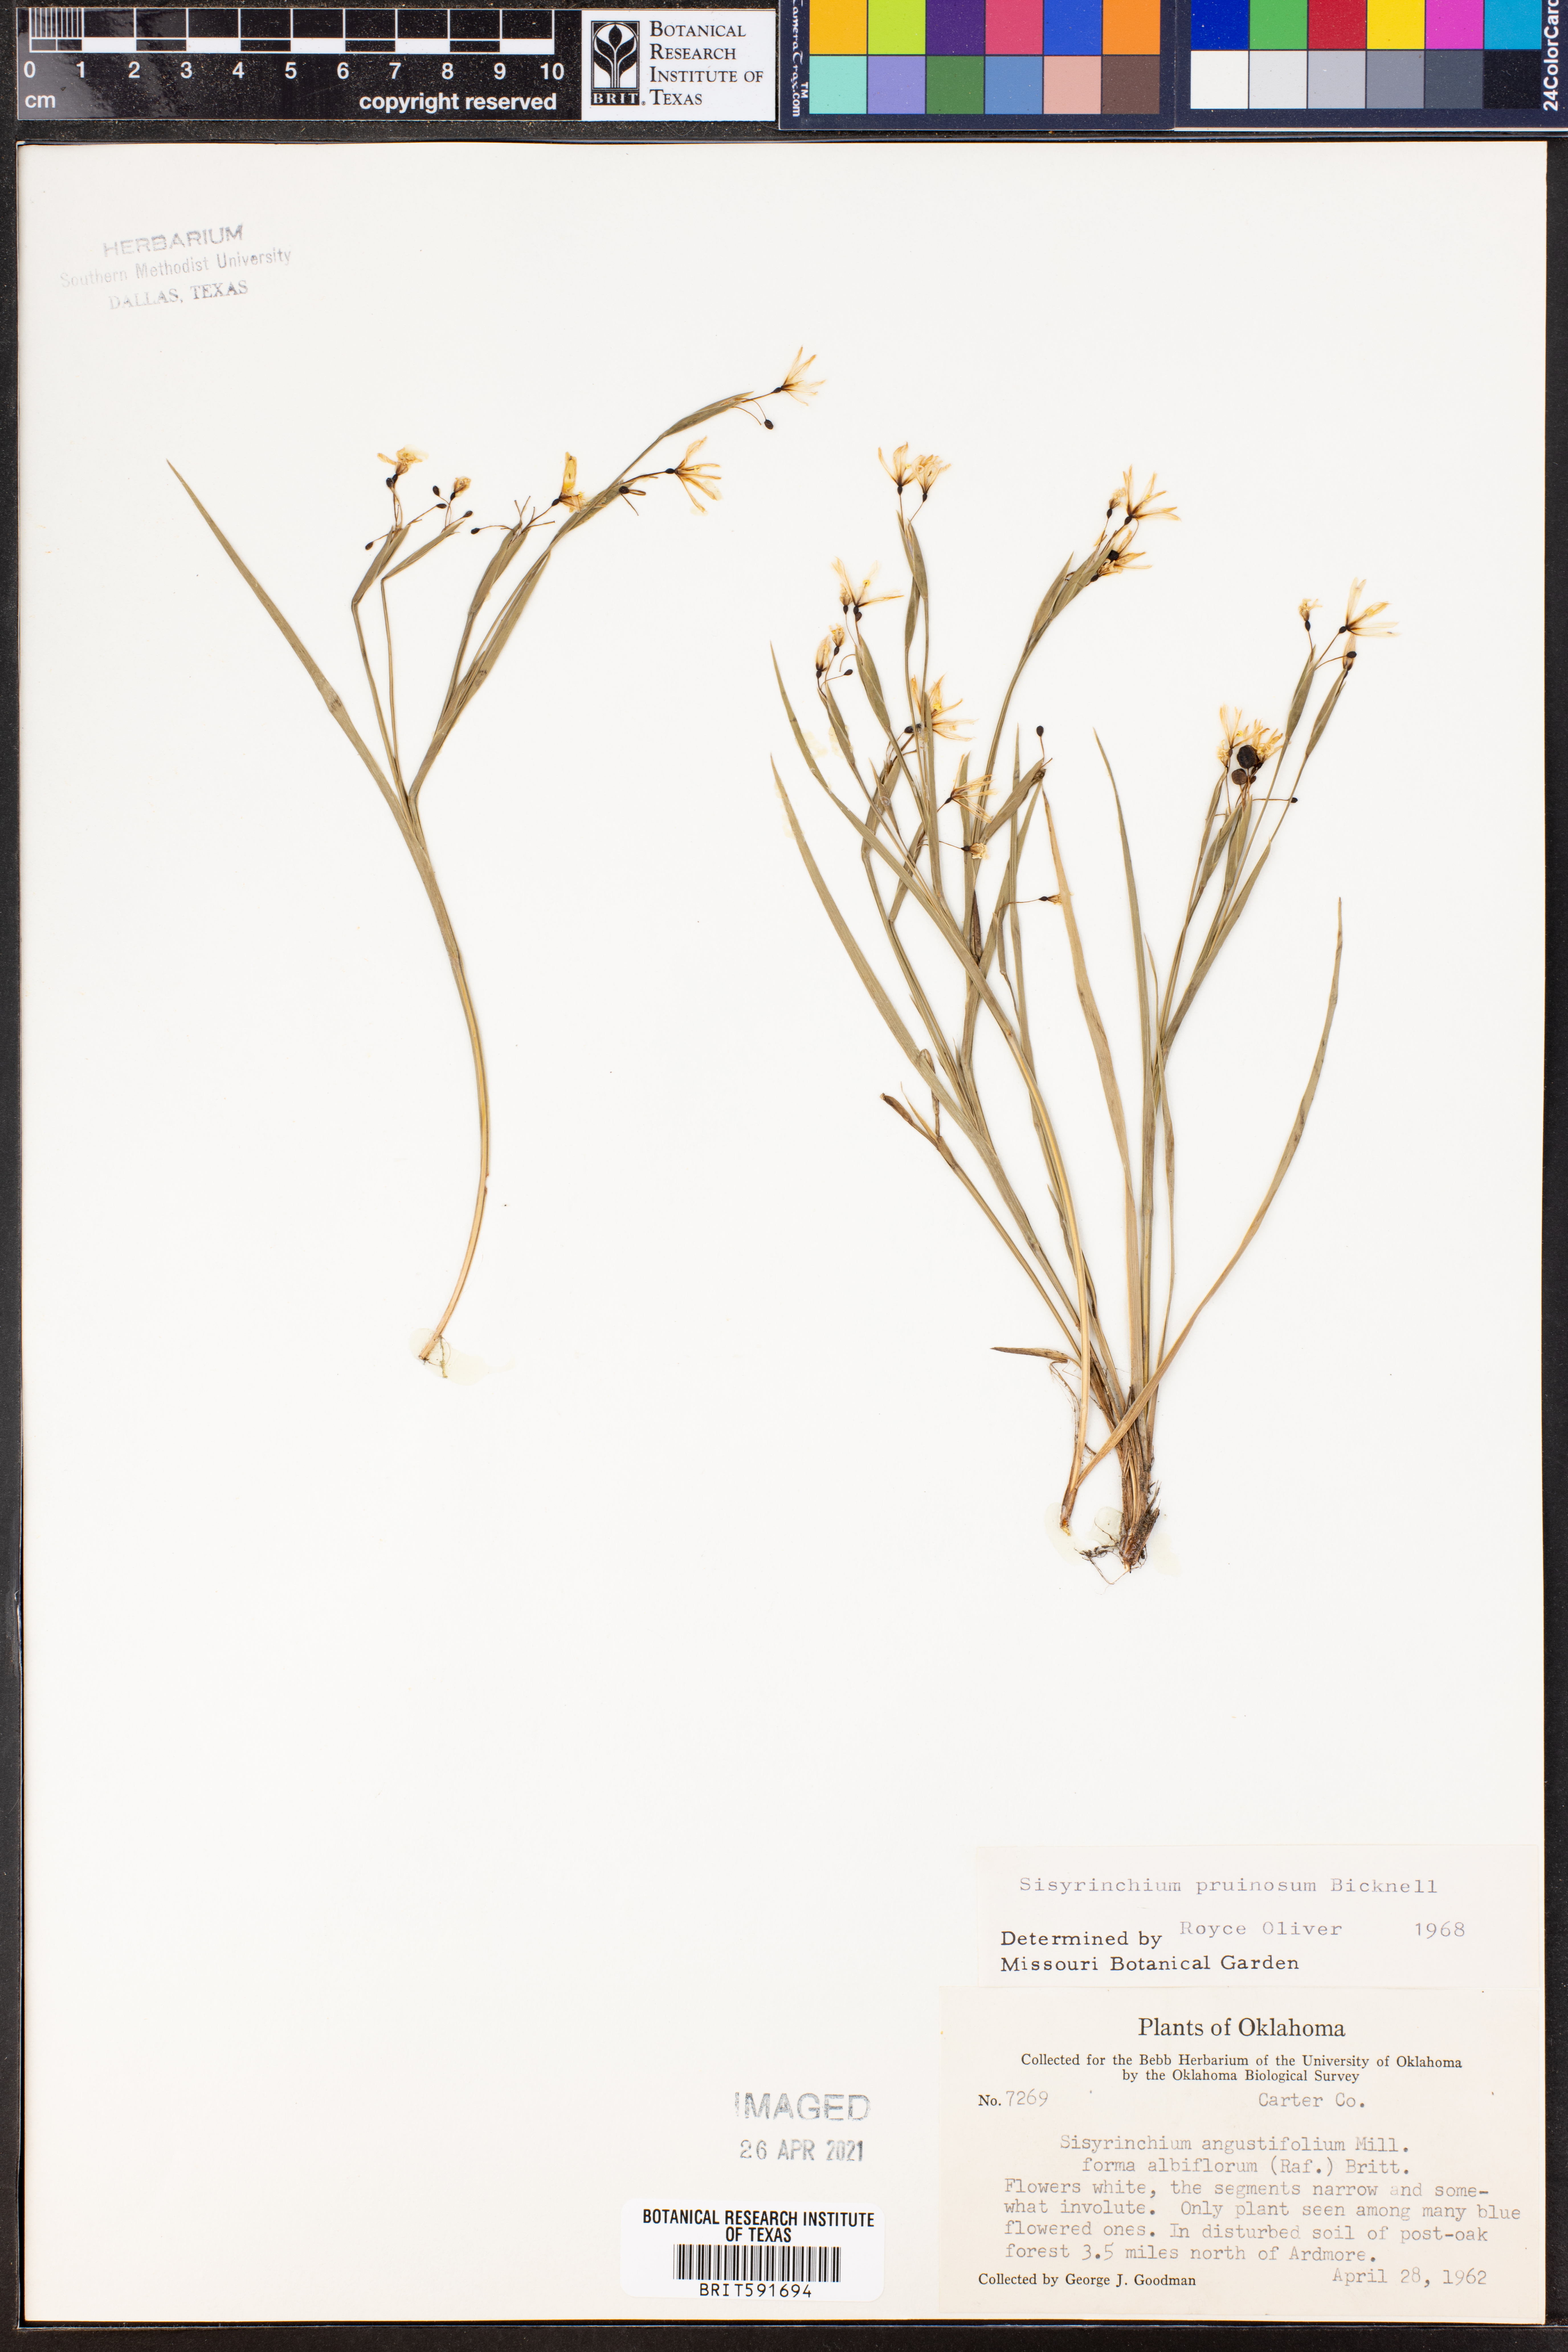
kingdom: Plantae
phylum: Tracheophyta
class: Liliopsida
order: Asparagales
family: Iridaceae
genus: Sisyrinchium
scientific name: Sisyrinchium pruinosum
